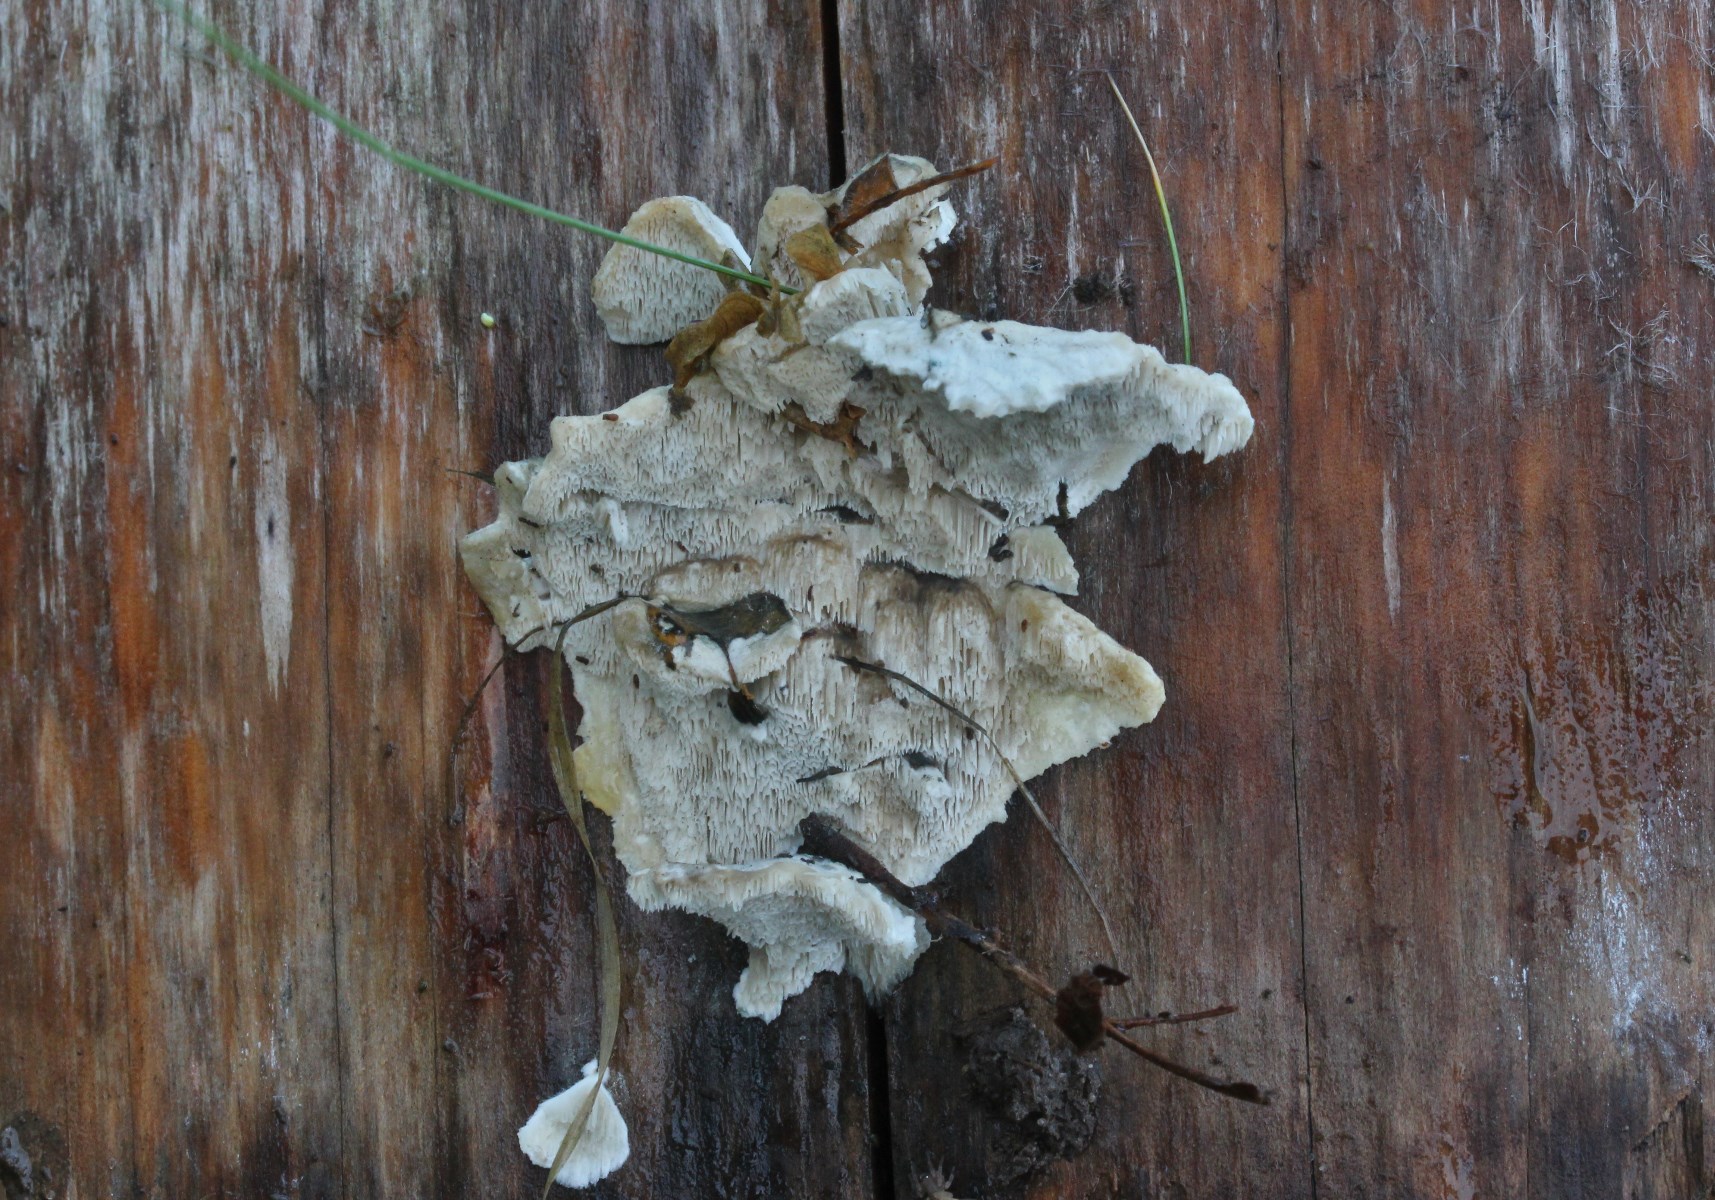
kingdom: Fungi
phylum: Basidiomycota
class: Agaricomycetes
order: Polyporales
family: Polyporaceae
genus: Cyanosporus
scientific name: Cyanosporus caesius
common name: blålig kødporesvamp
